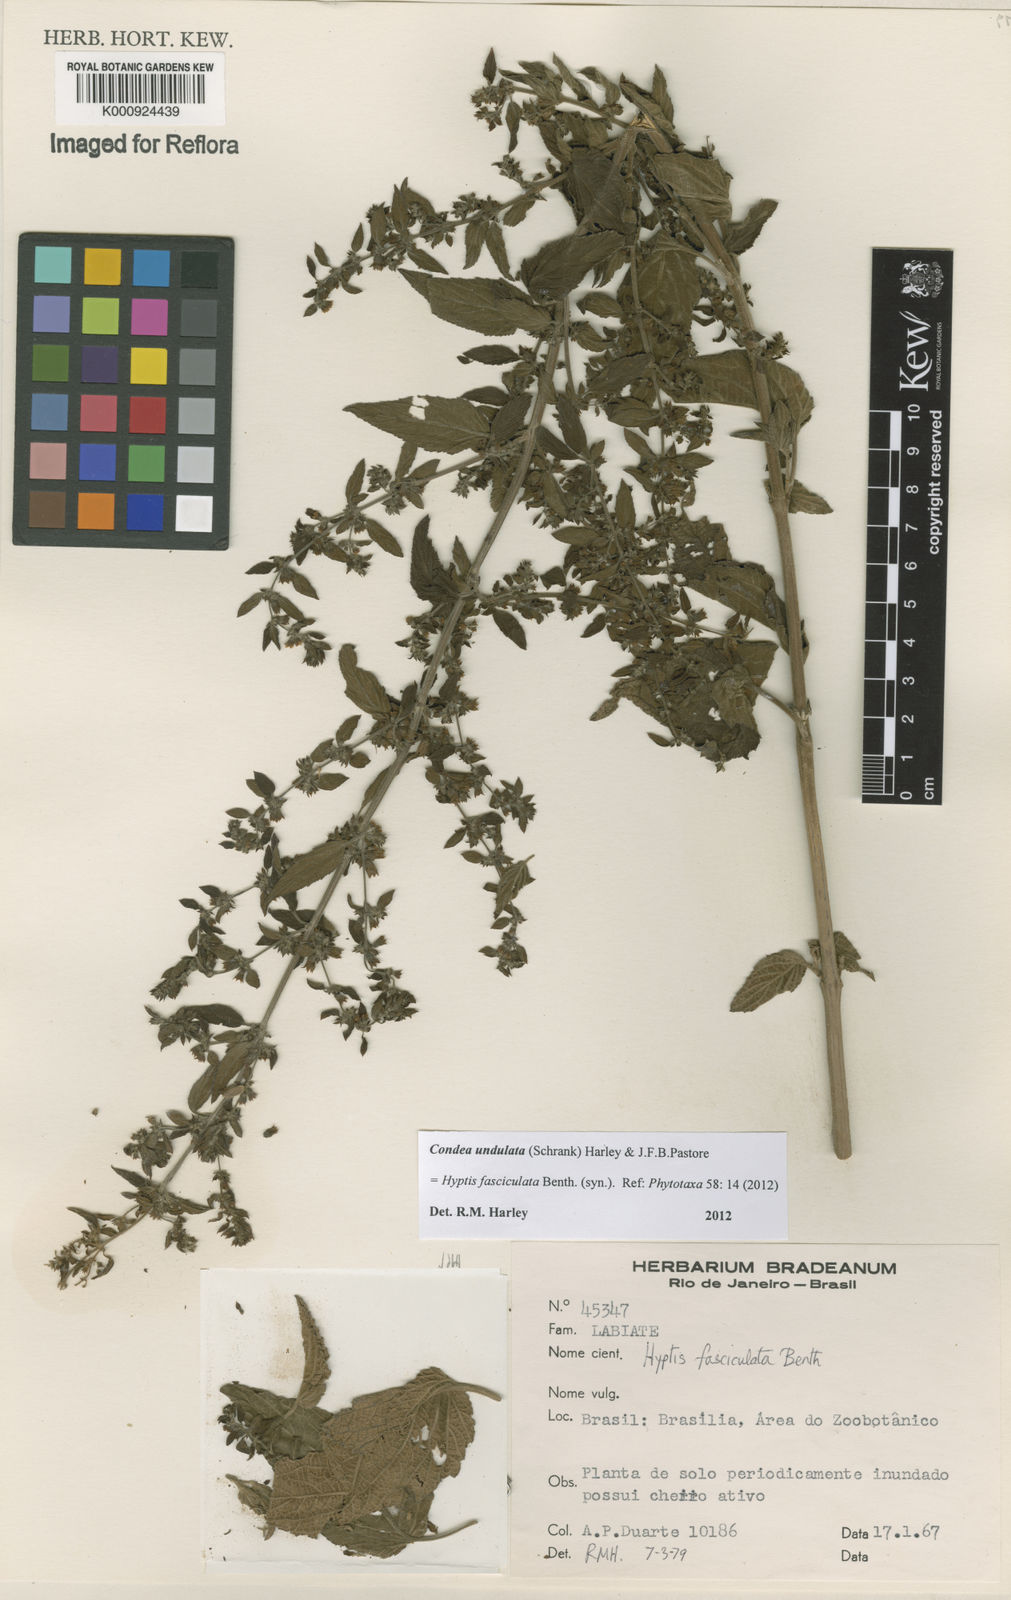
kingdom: Plantae
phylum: Tracheophyta
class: Magnoliopsida
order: Lamiales
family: Lamiaceae
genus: Condea
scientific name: Condea undulata
